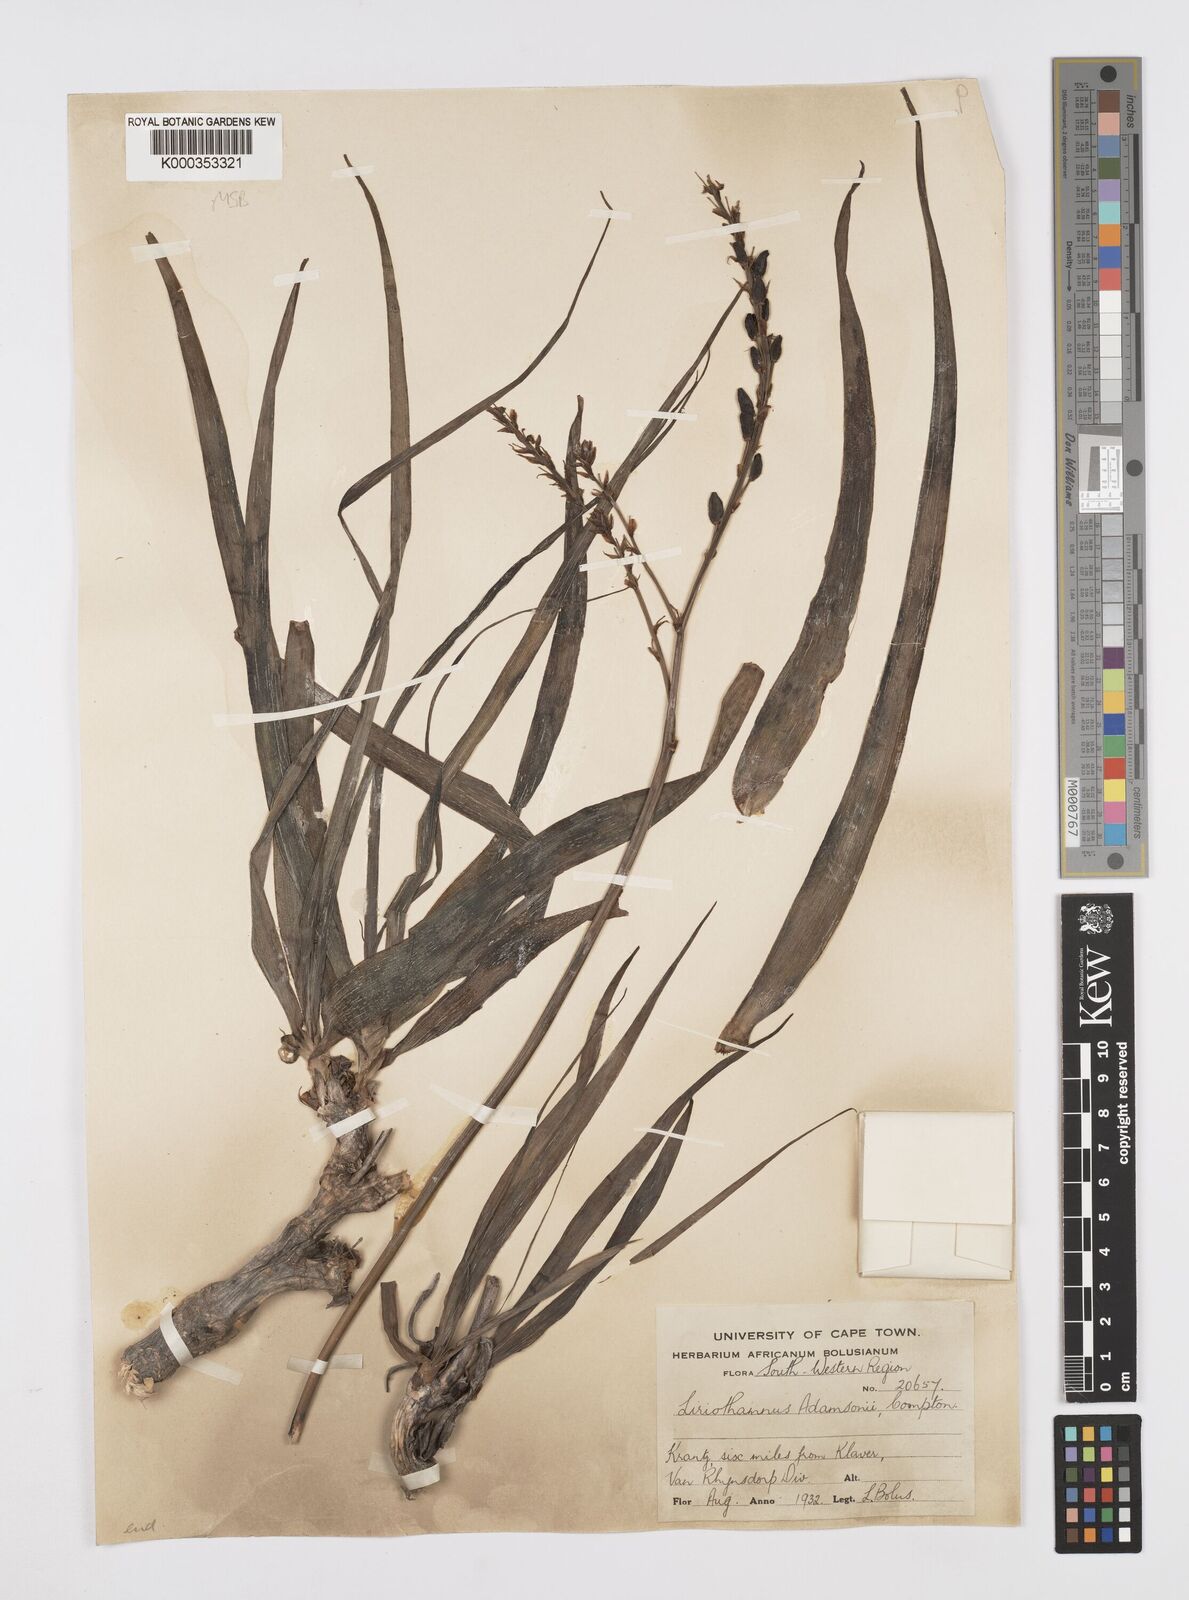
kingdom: Plantae
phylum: Tracheophyta
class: Liliopsida
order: Asparagales
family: Asphodelaceae
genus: Trachyandra
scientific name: Trachyandra adamsonii
